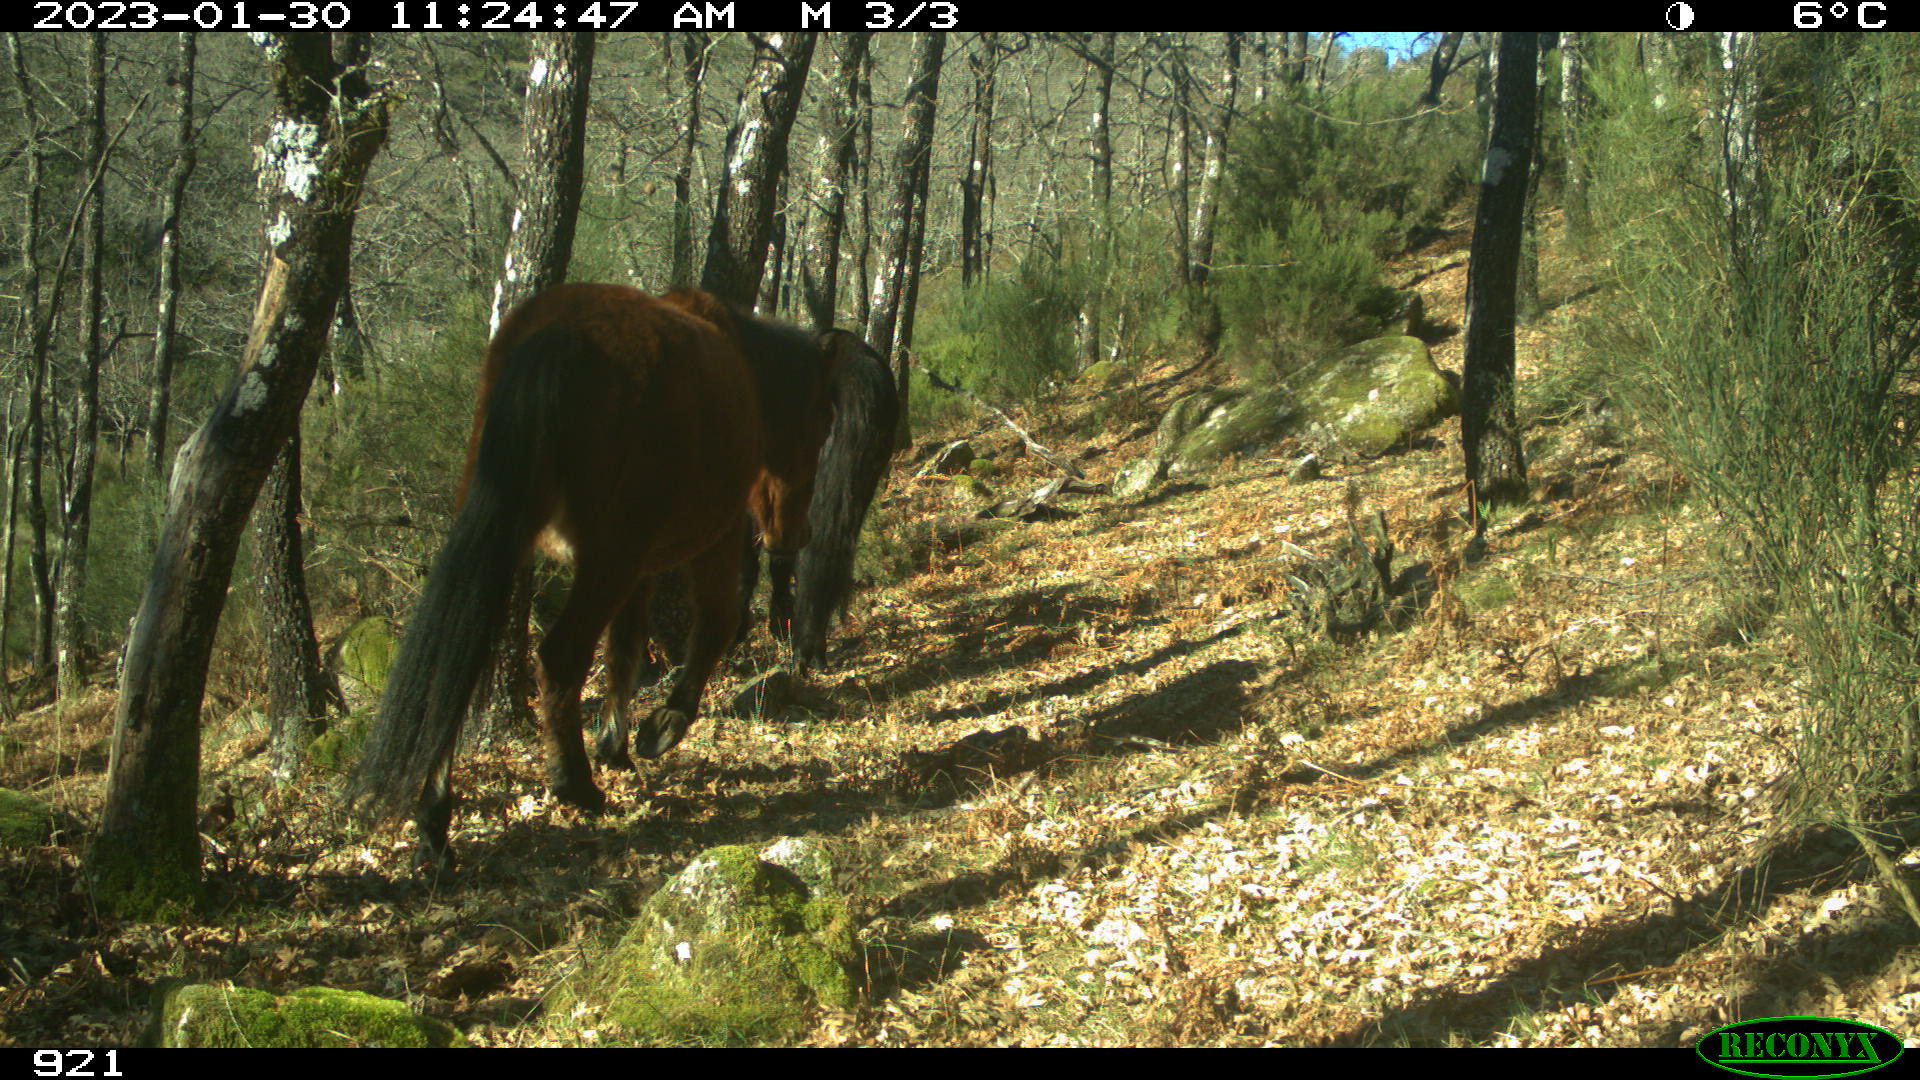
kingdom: Animalia
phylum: Chordata
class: Mammalia
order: Perissodactyla
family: Equidae
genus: Equus
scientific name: Equus caballus
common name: Horse
